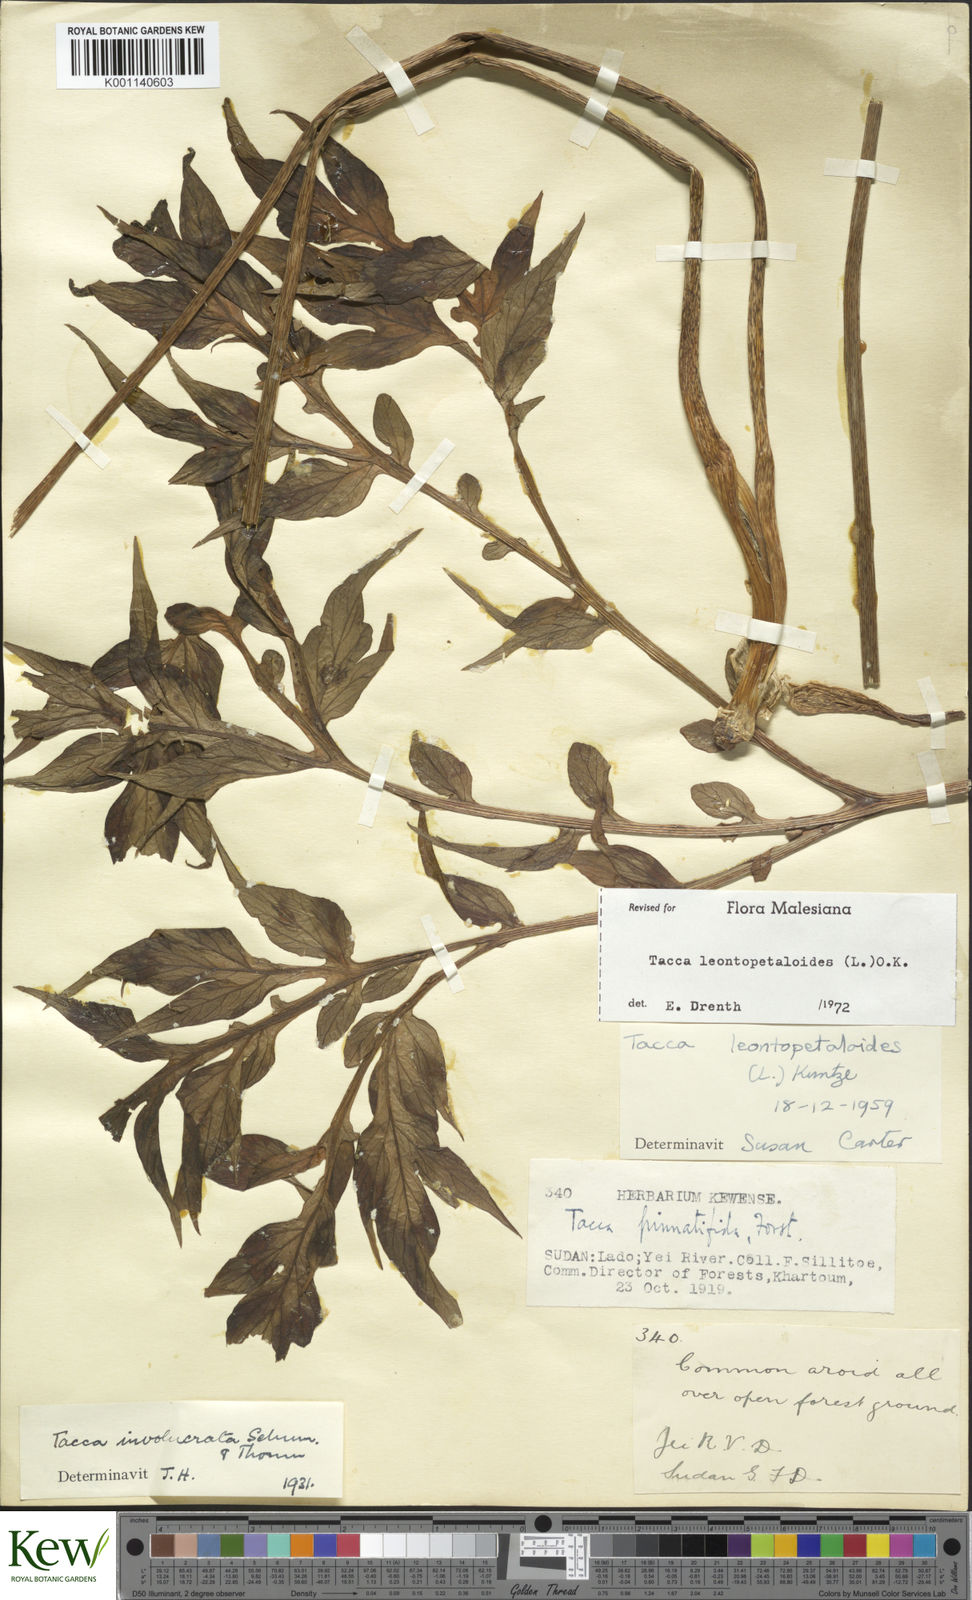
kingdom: Plantae
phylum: Tracheophyta
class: Liliopsida
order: Dioscoreales
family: Dioscoreaceae
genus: Tacca
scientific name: Tacca leontopetaloides
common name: Arrowroot
